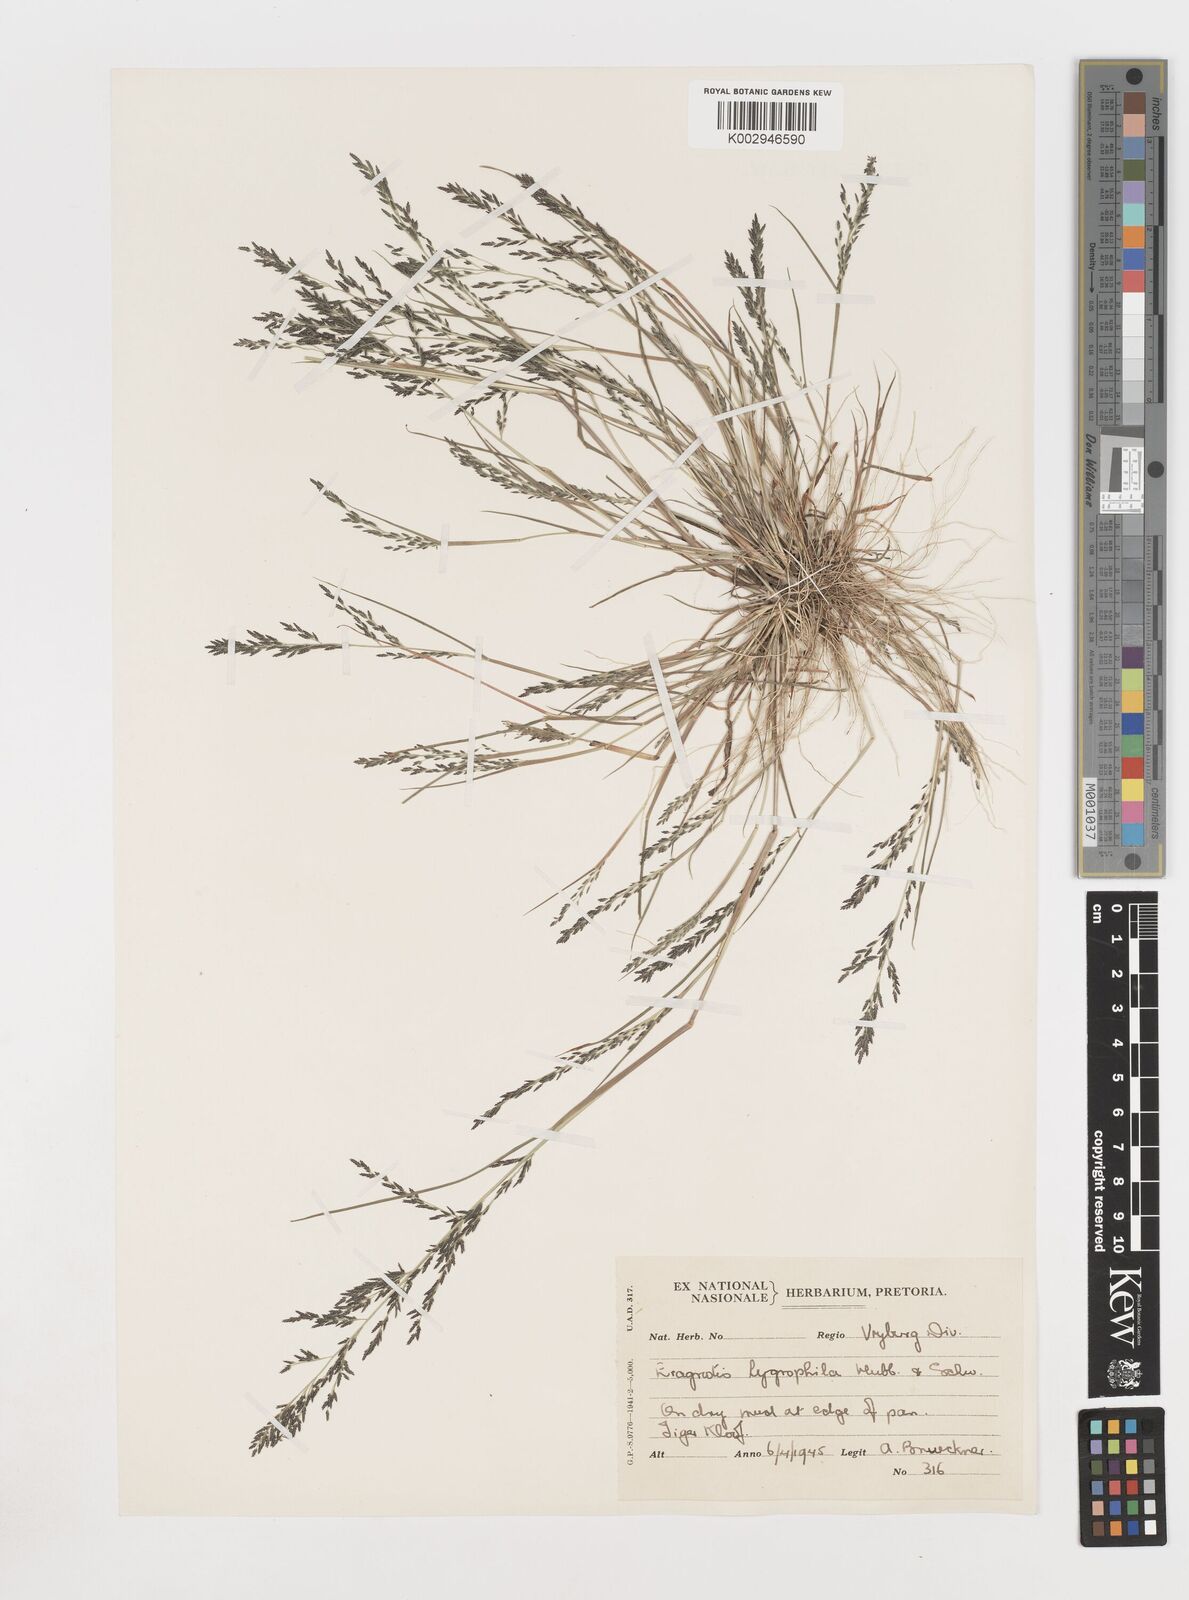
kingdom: Plantae
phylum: Tracheophyta
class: Liliopsida
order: Poales
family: Poaceae
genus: Eragrostis
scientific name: Eragrostis homomalla
